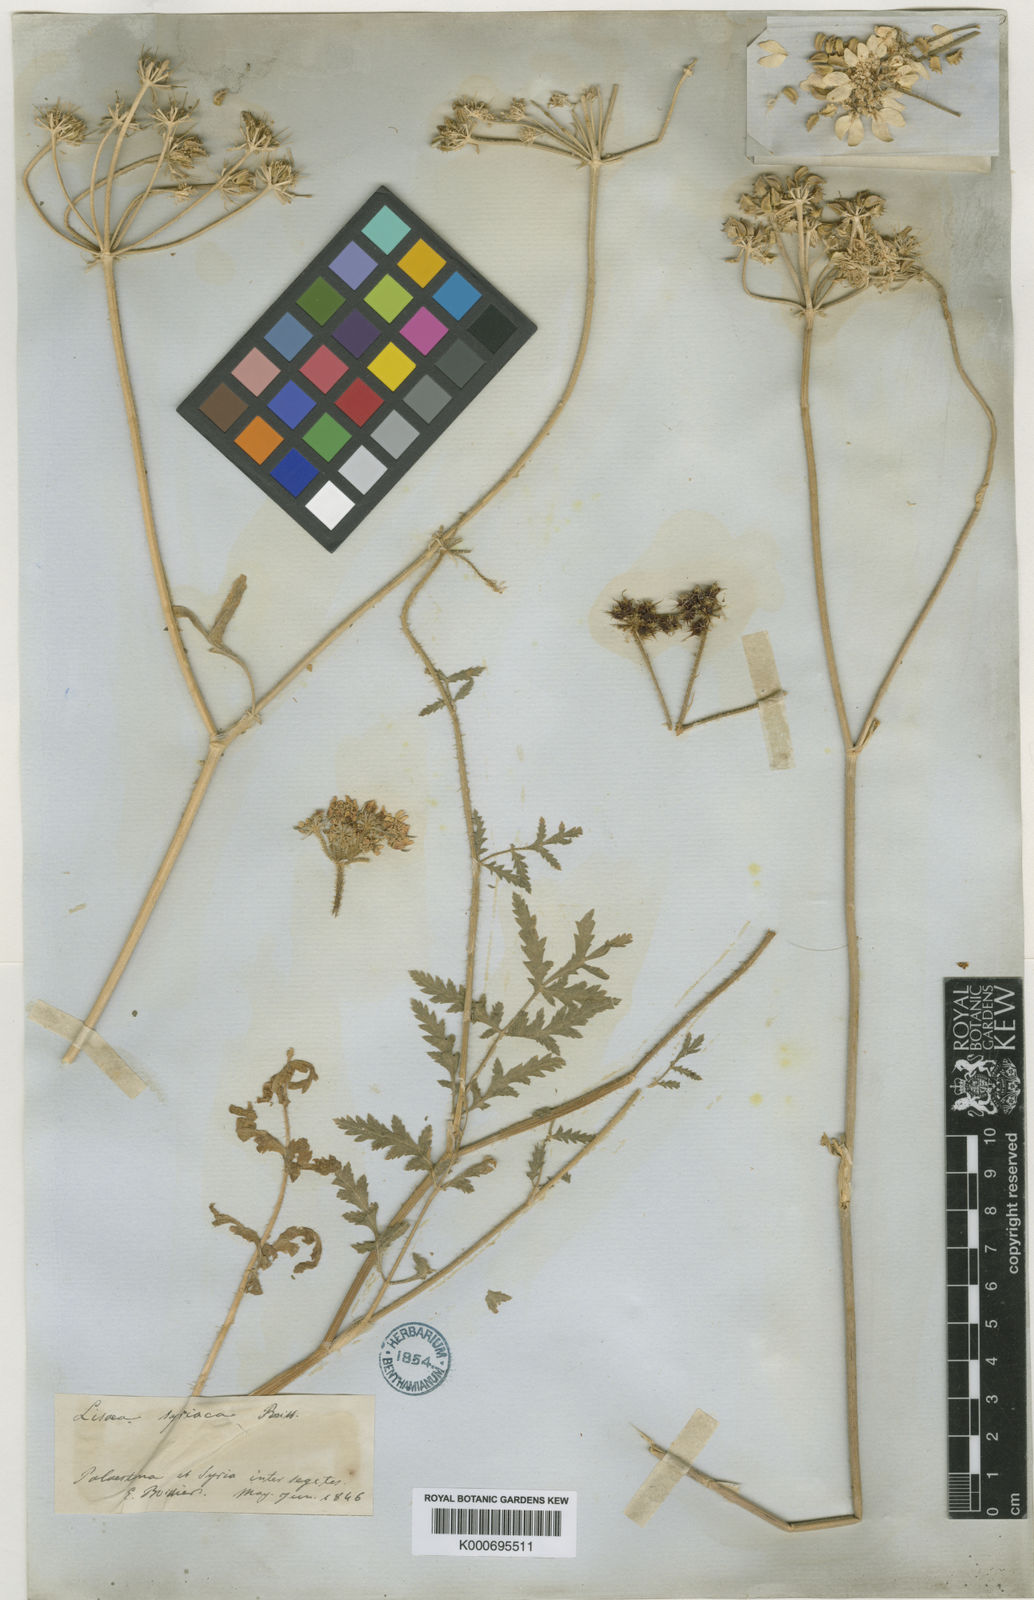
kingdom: Plantae
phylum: Tracheophyta
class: Magnoliopsida
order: Apiales
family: Apiaceae
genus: Lisaea
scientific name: Lisaea
